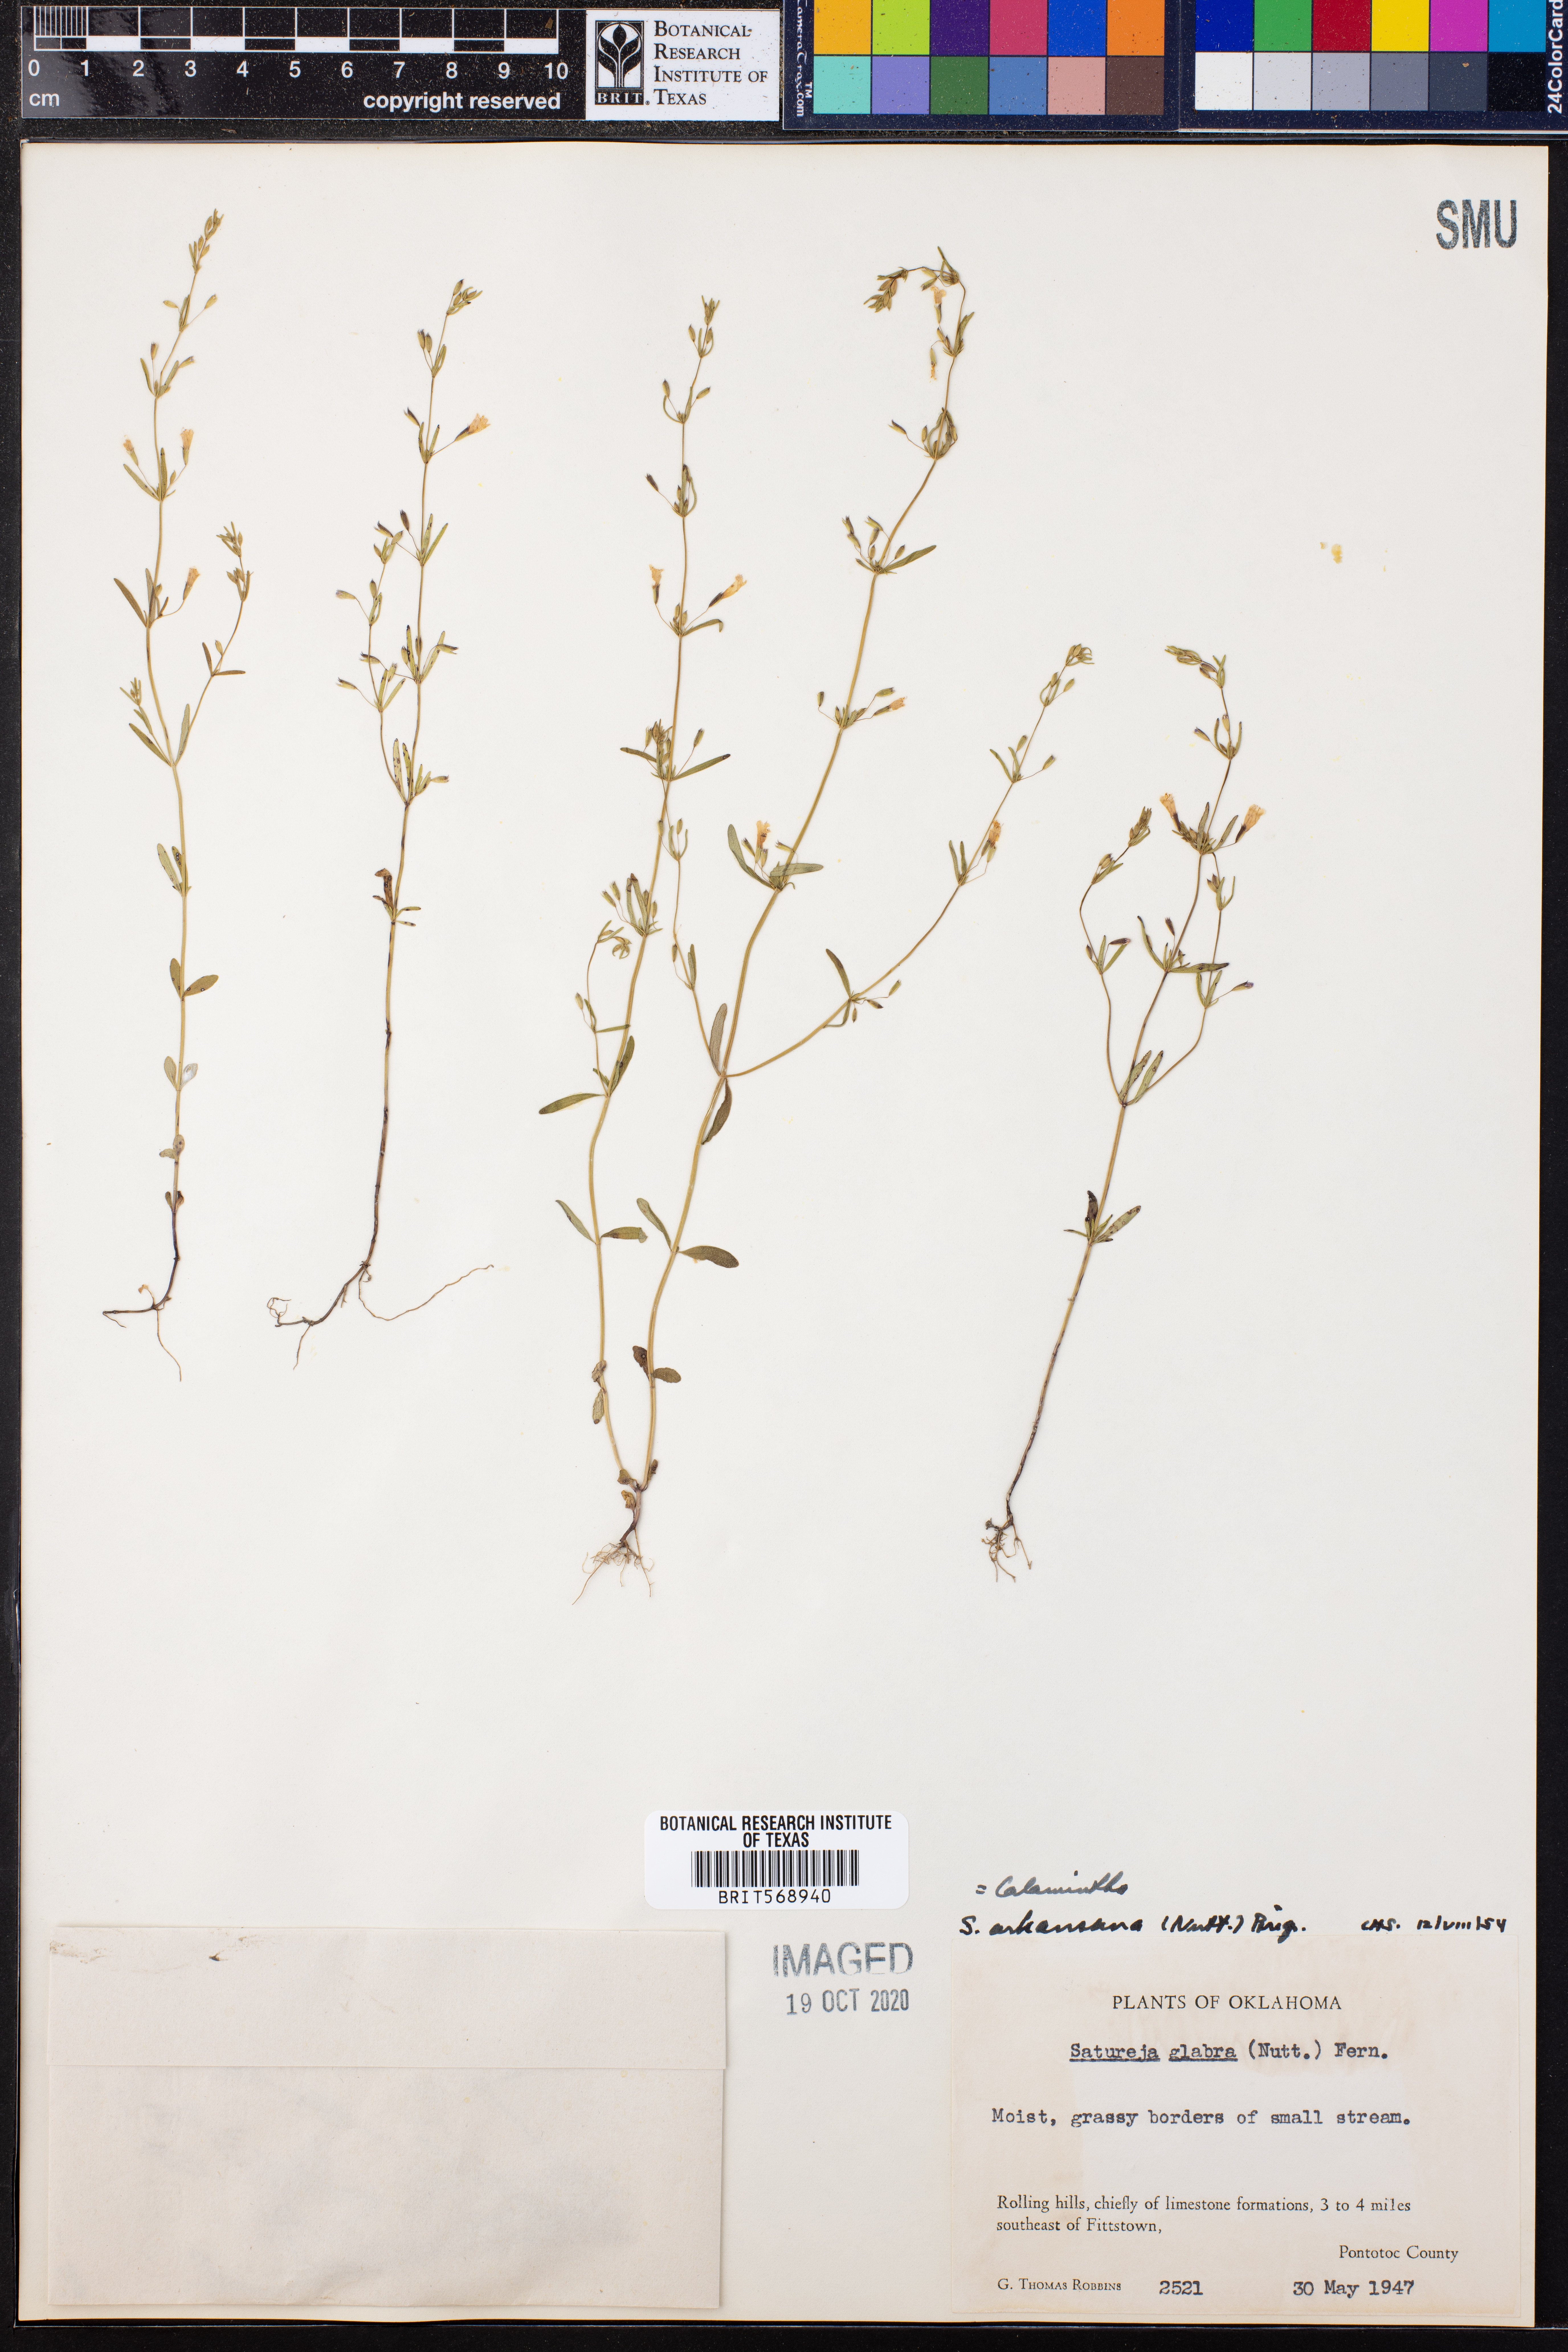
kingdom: Plantae
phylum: Tracheophyta
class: Magnoliopsida
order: Lamiales
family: Lamiaceae
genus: Clinopodium
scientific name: Clinopodium arkansanum
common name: Limestone calamint
